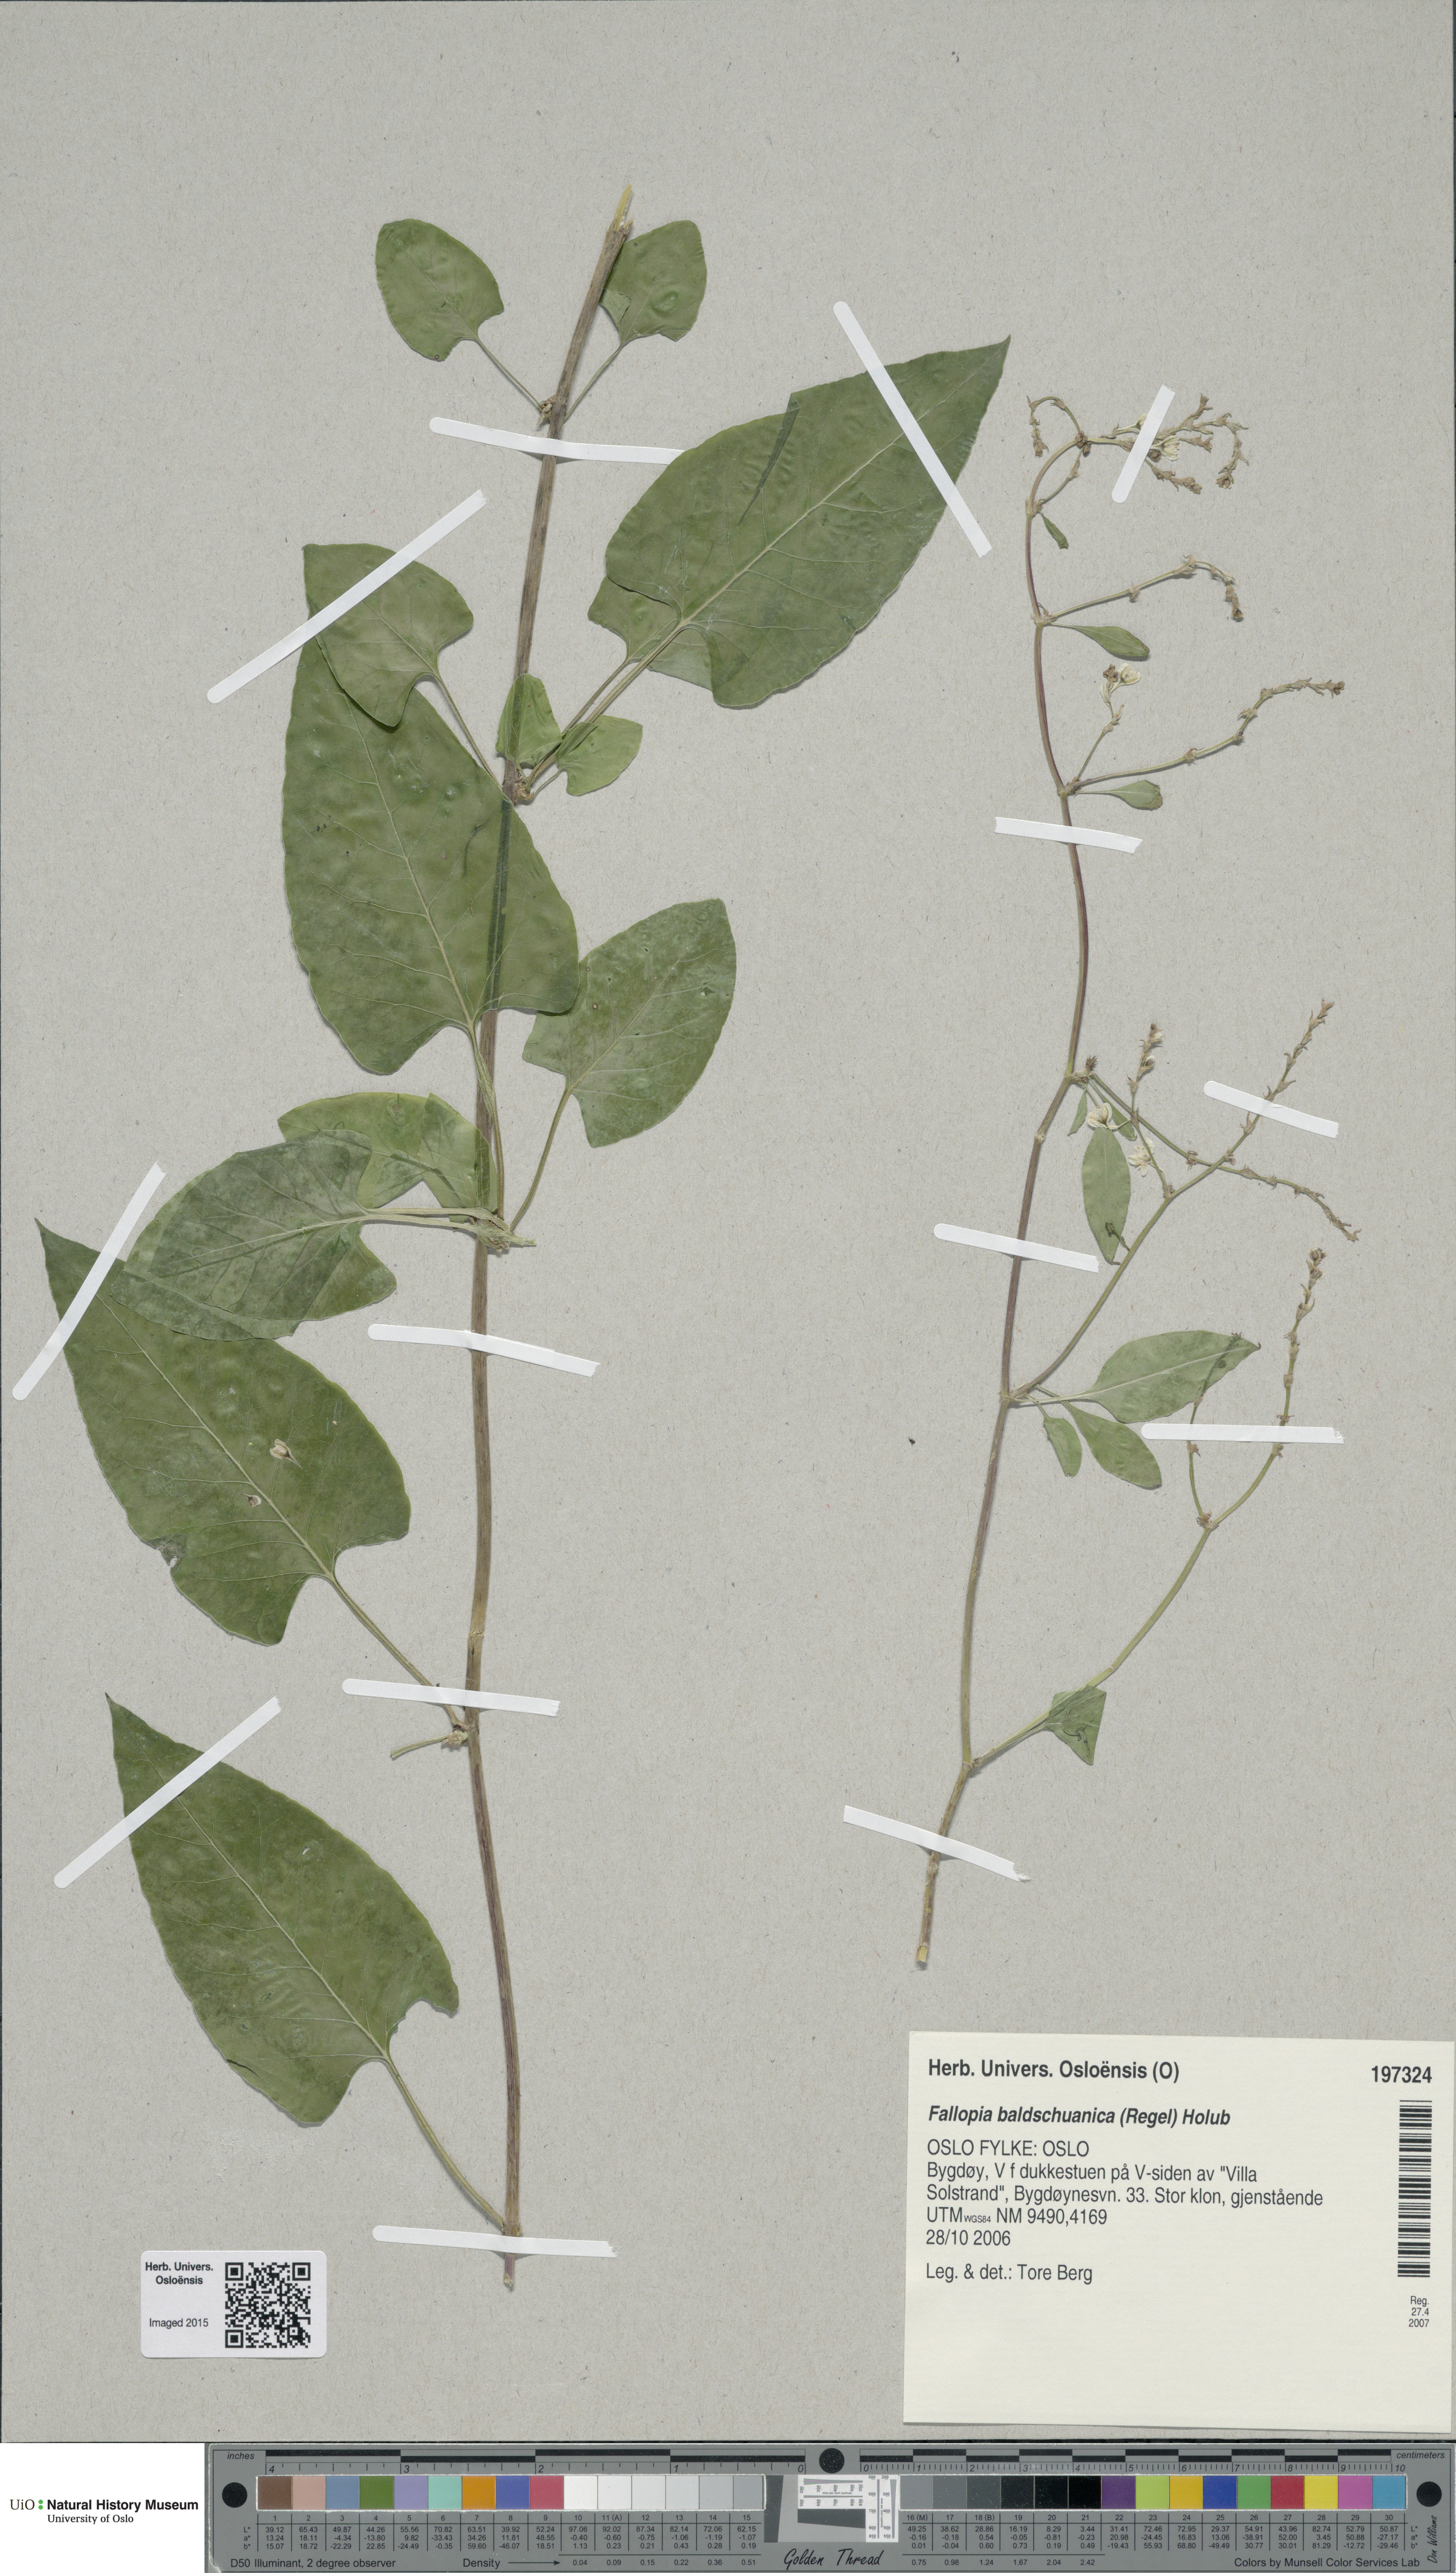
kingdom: Plantae
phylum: Tracheophyta
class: Magnoliopsida
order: Caryophyllales
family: Polygonaceae
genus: Fallopia
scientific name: Fallopia baldschuanica
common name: Russian-vine
